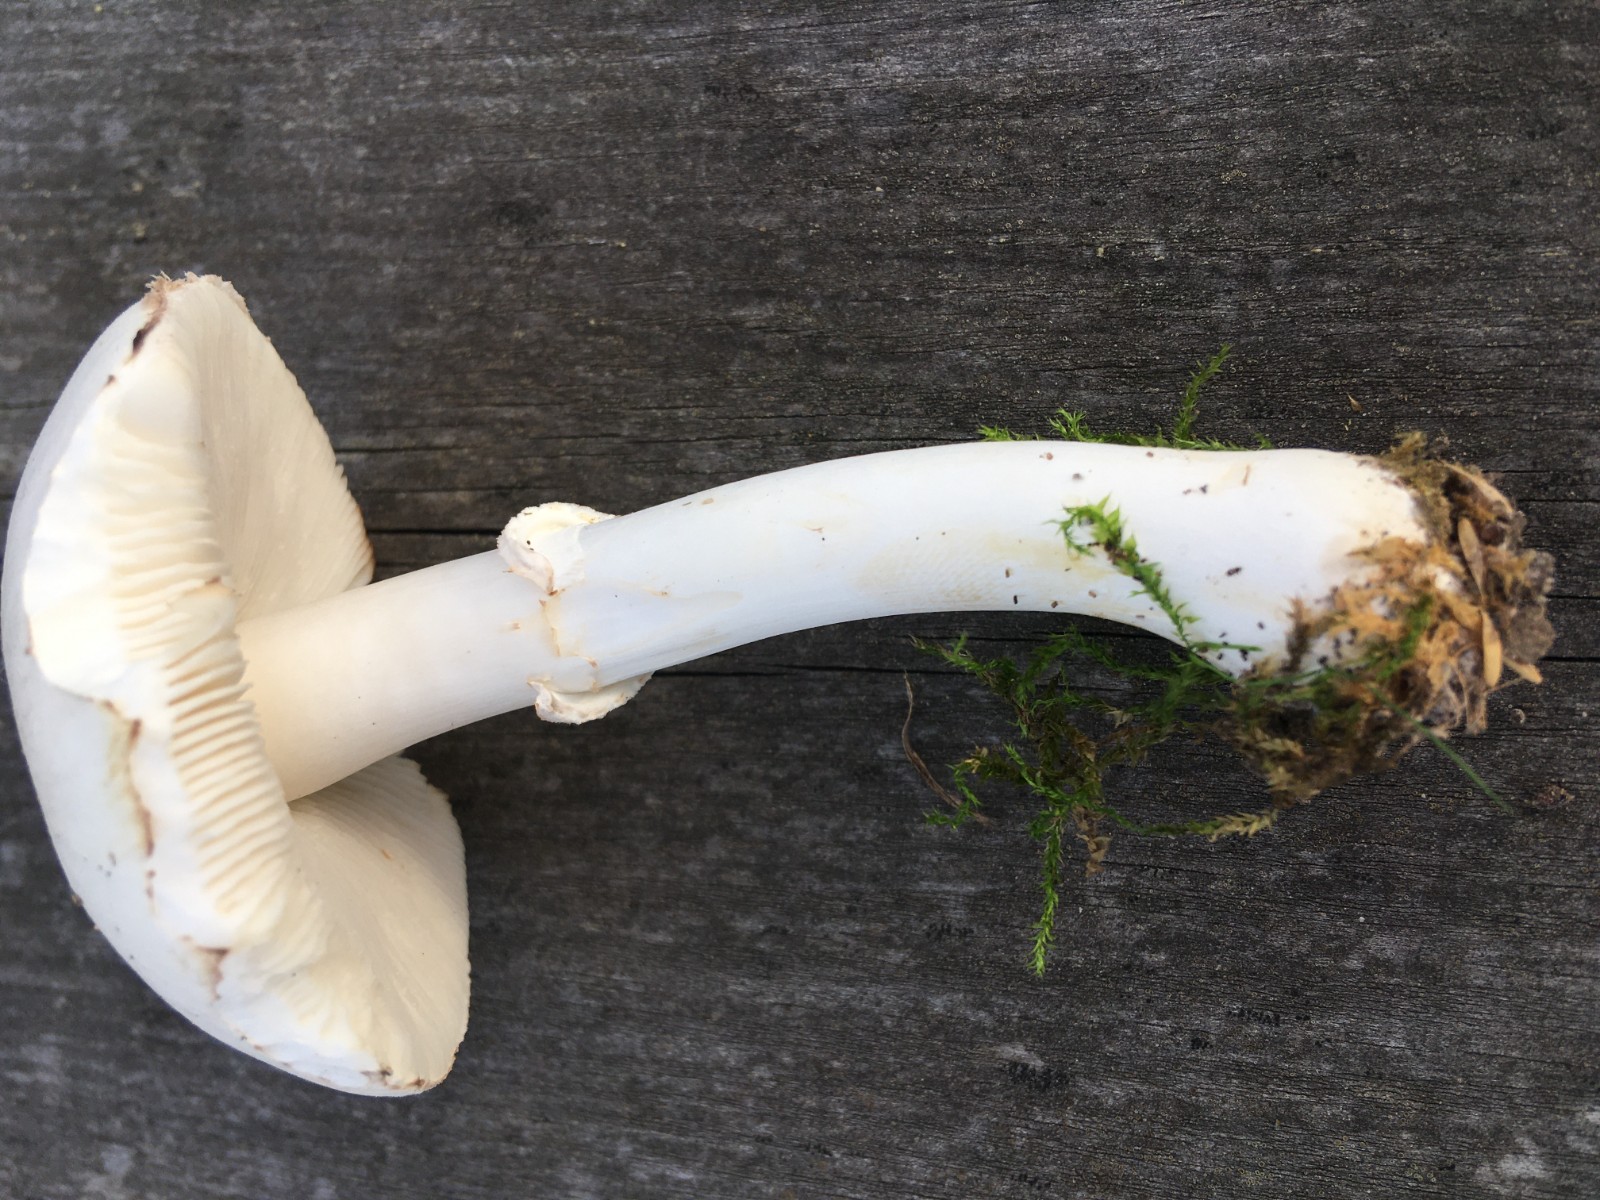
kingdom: Fungi
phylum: Basidiomycota
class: Agaricomycetes
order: Agaricales
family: Agaricaceae
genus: Leucoagaricus
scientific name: Leucoagaricus leucothites
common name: rosabladet silkehat
